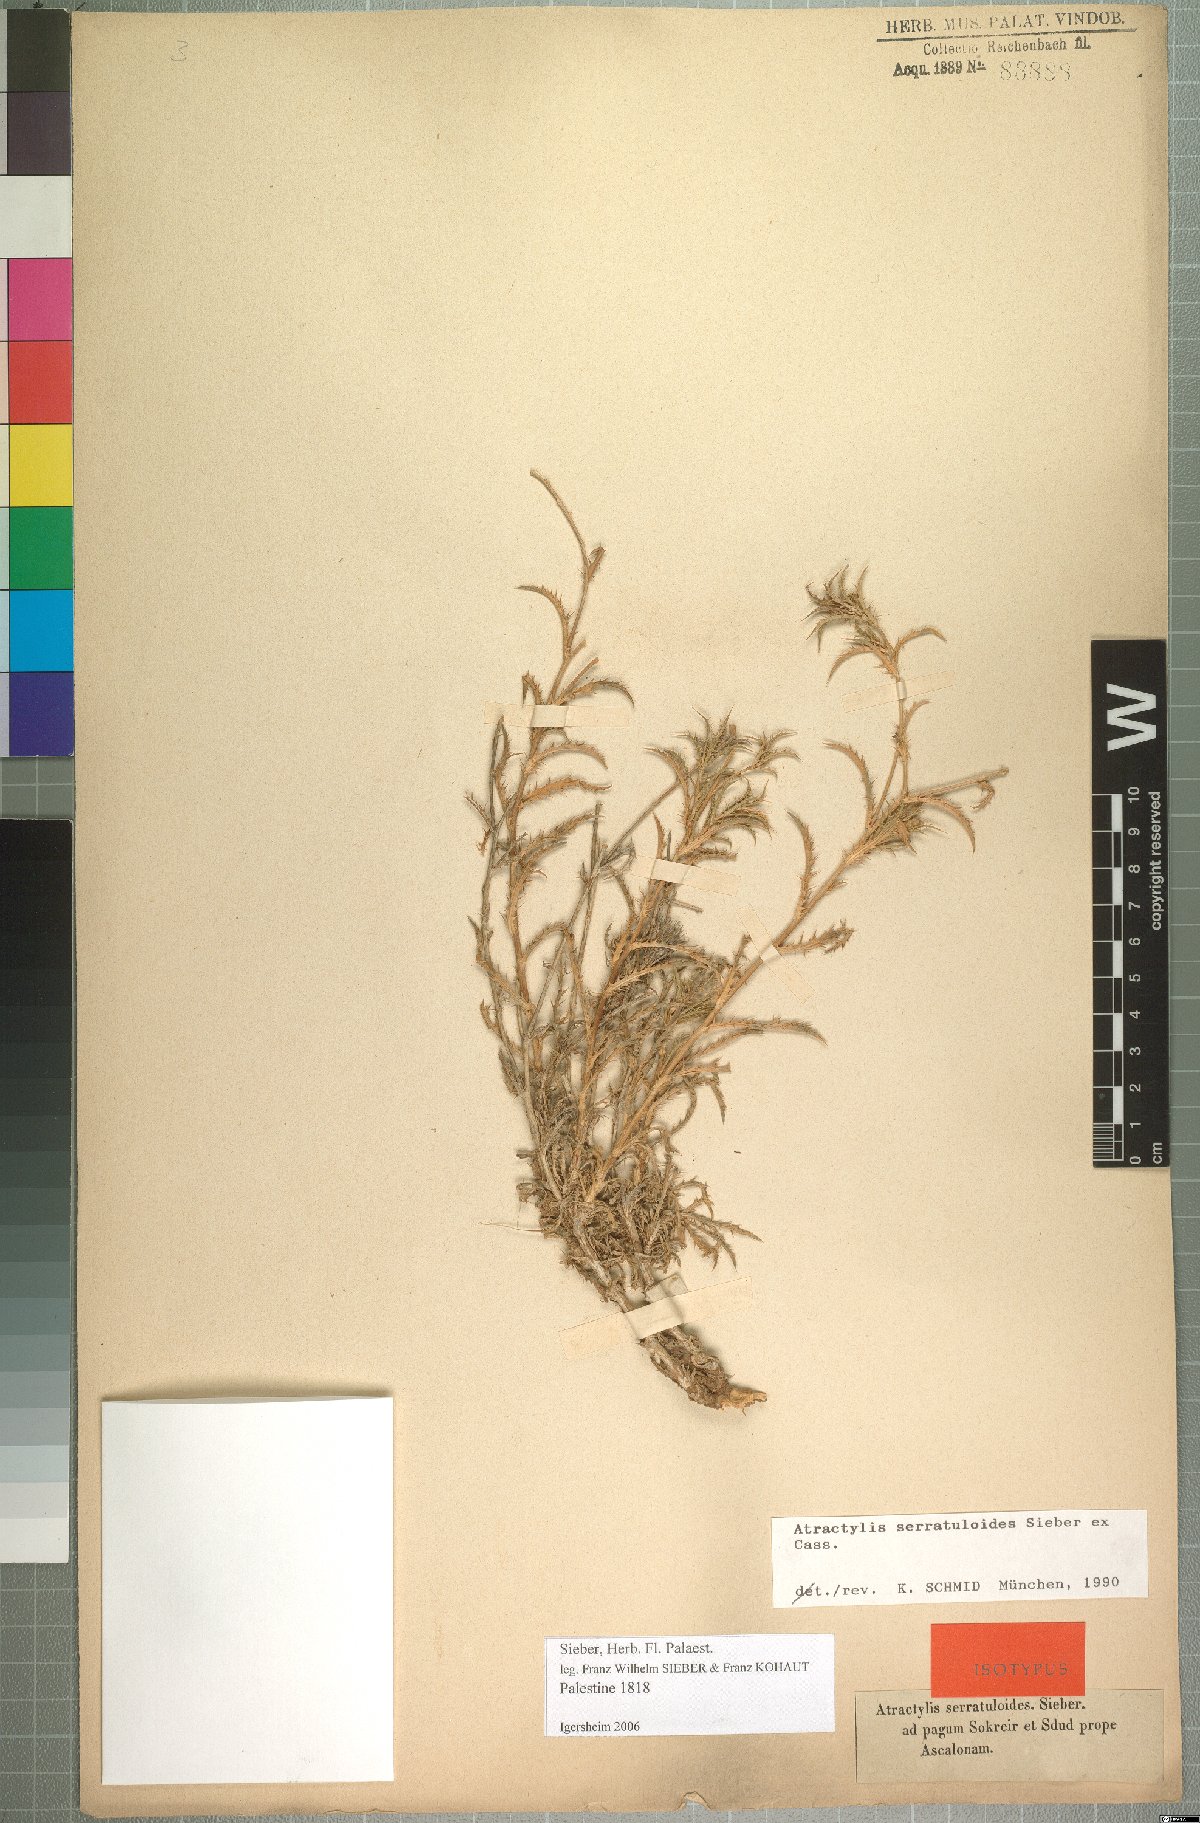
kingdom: Plantae
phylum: Tracheophyta
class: Magnoliopsida
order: Asterales
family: Asteraceae
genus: Atractylis
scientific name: Atractylis serratuloides
